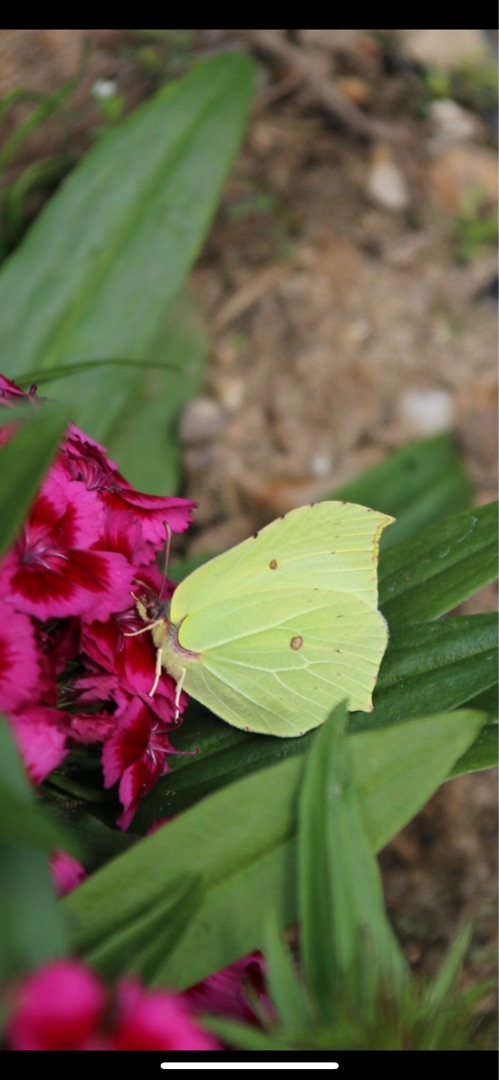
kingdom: Animalia
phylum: Arthropoda
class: Insecta
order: Lepidoptera
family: Pieridae
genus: Gonepteryx
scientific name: Gonepteryx rhamni
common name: Citronsommerfugl
